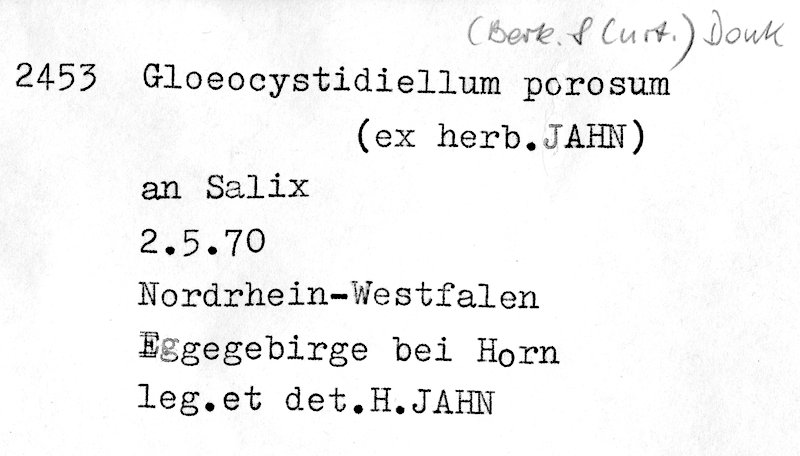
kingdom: Fungi
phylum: Basidiomycota
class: Agaricomycetes
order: Russulales
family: Stereaceae
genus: Gloeocystidiellum
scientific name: Gloeocystidiellum porosum
